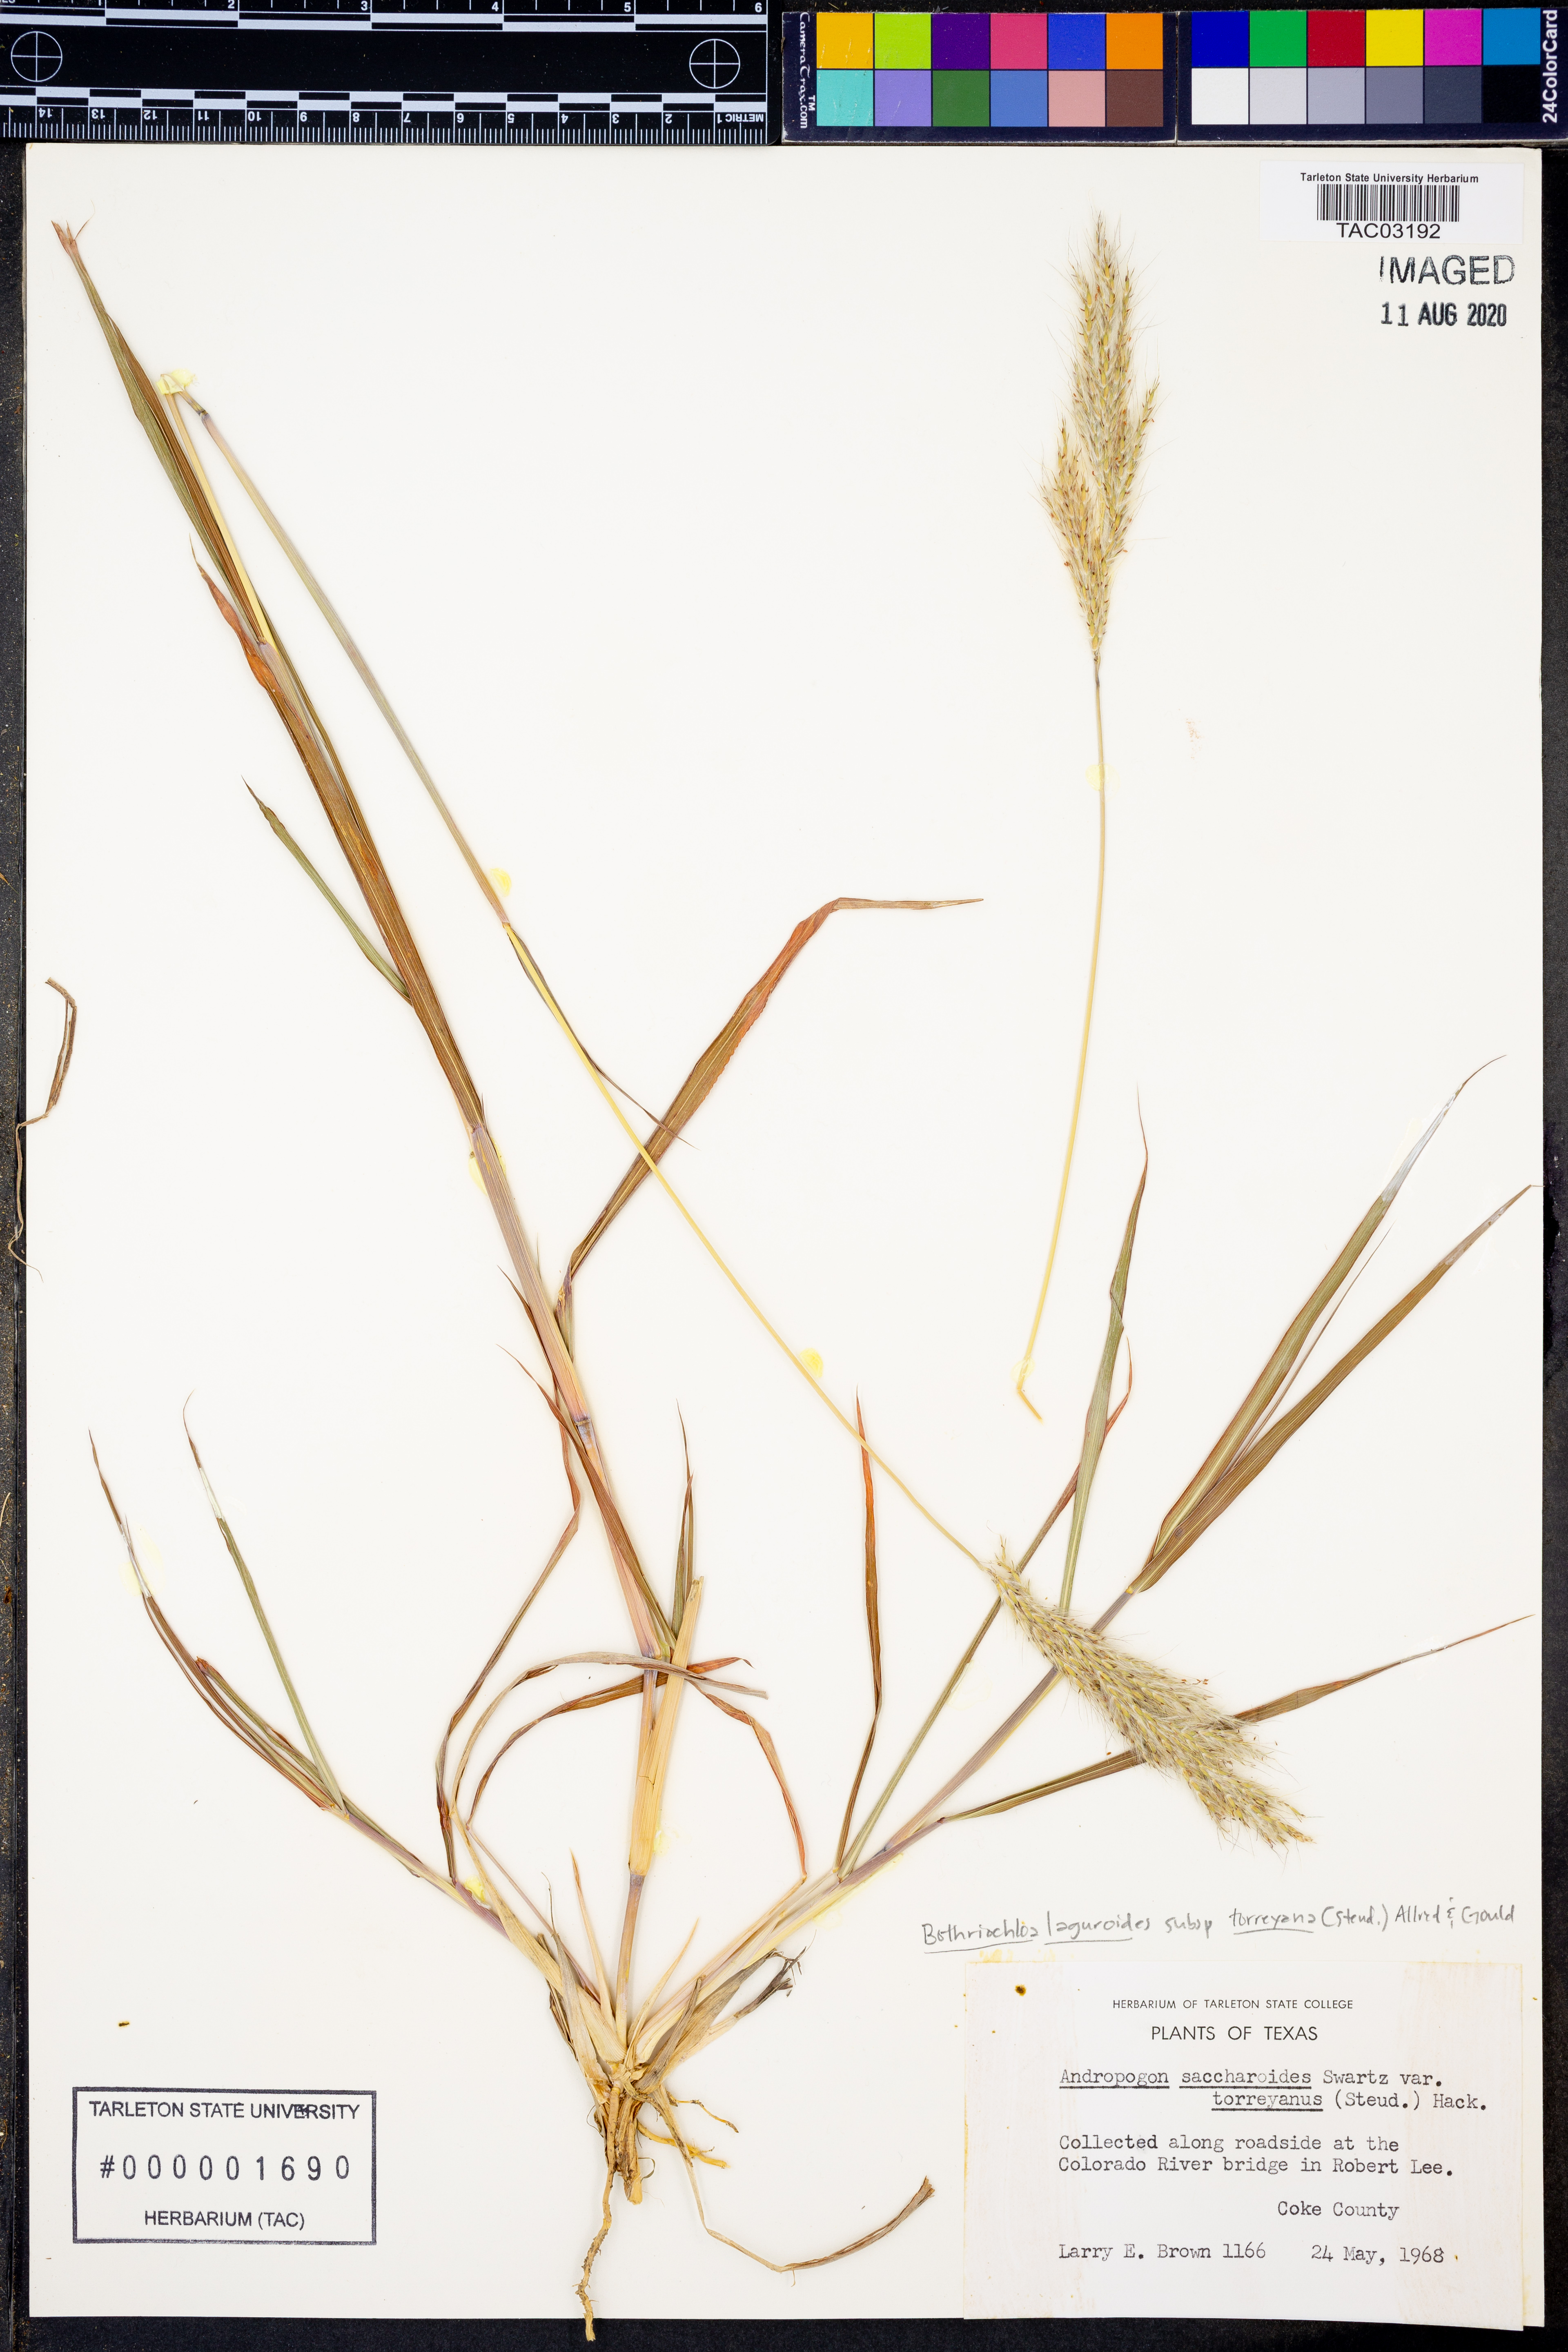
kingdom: Plantae
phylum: Tracheophyta
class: Liliopsida
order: Poales
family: Poaceae
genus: Bothriochloa
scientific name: Bothriochloa torreyana
